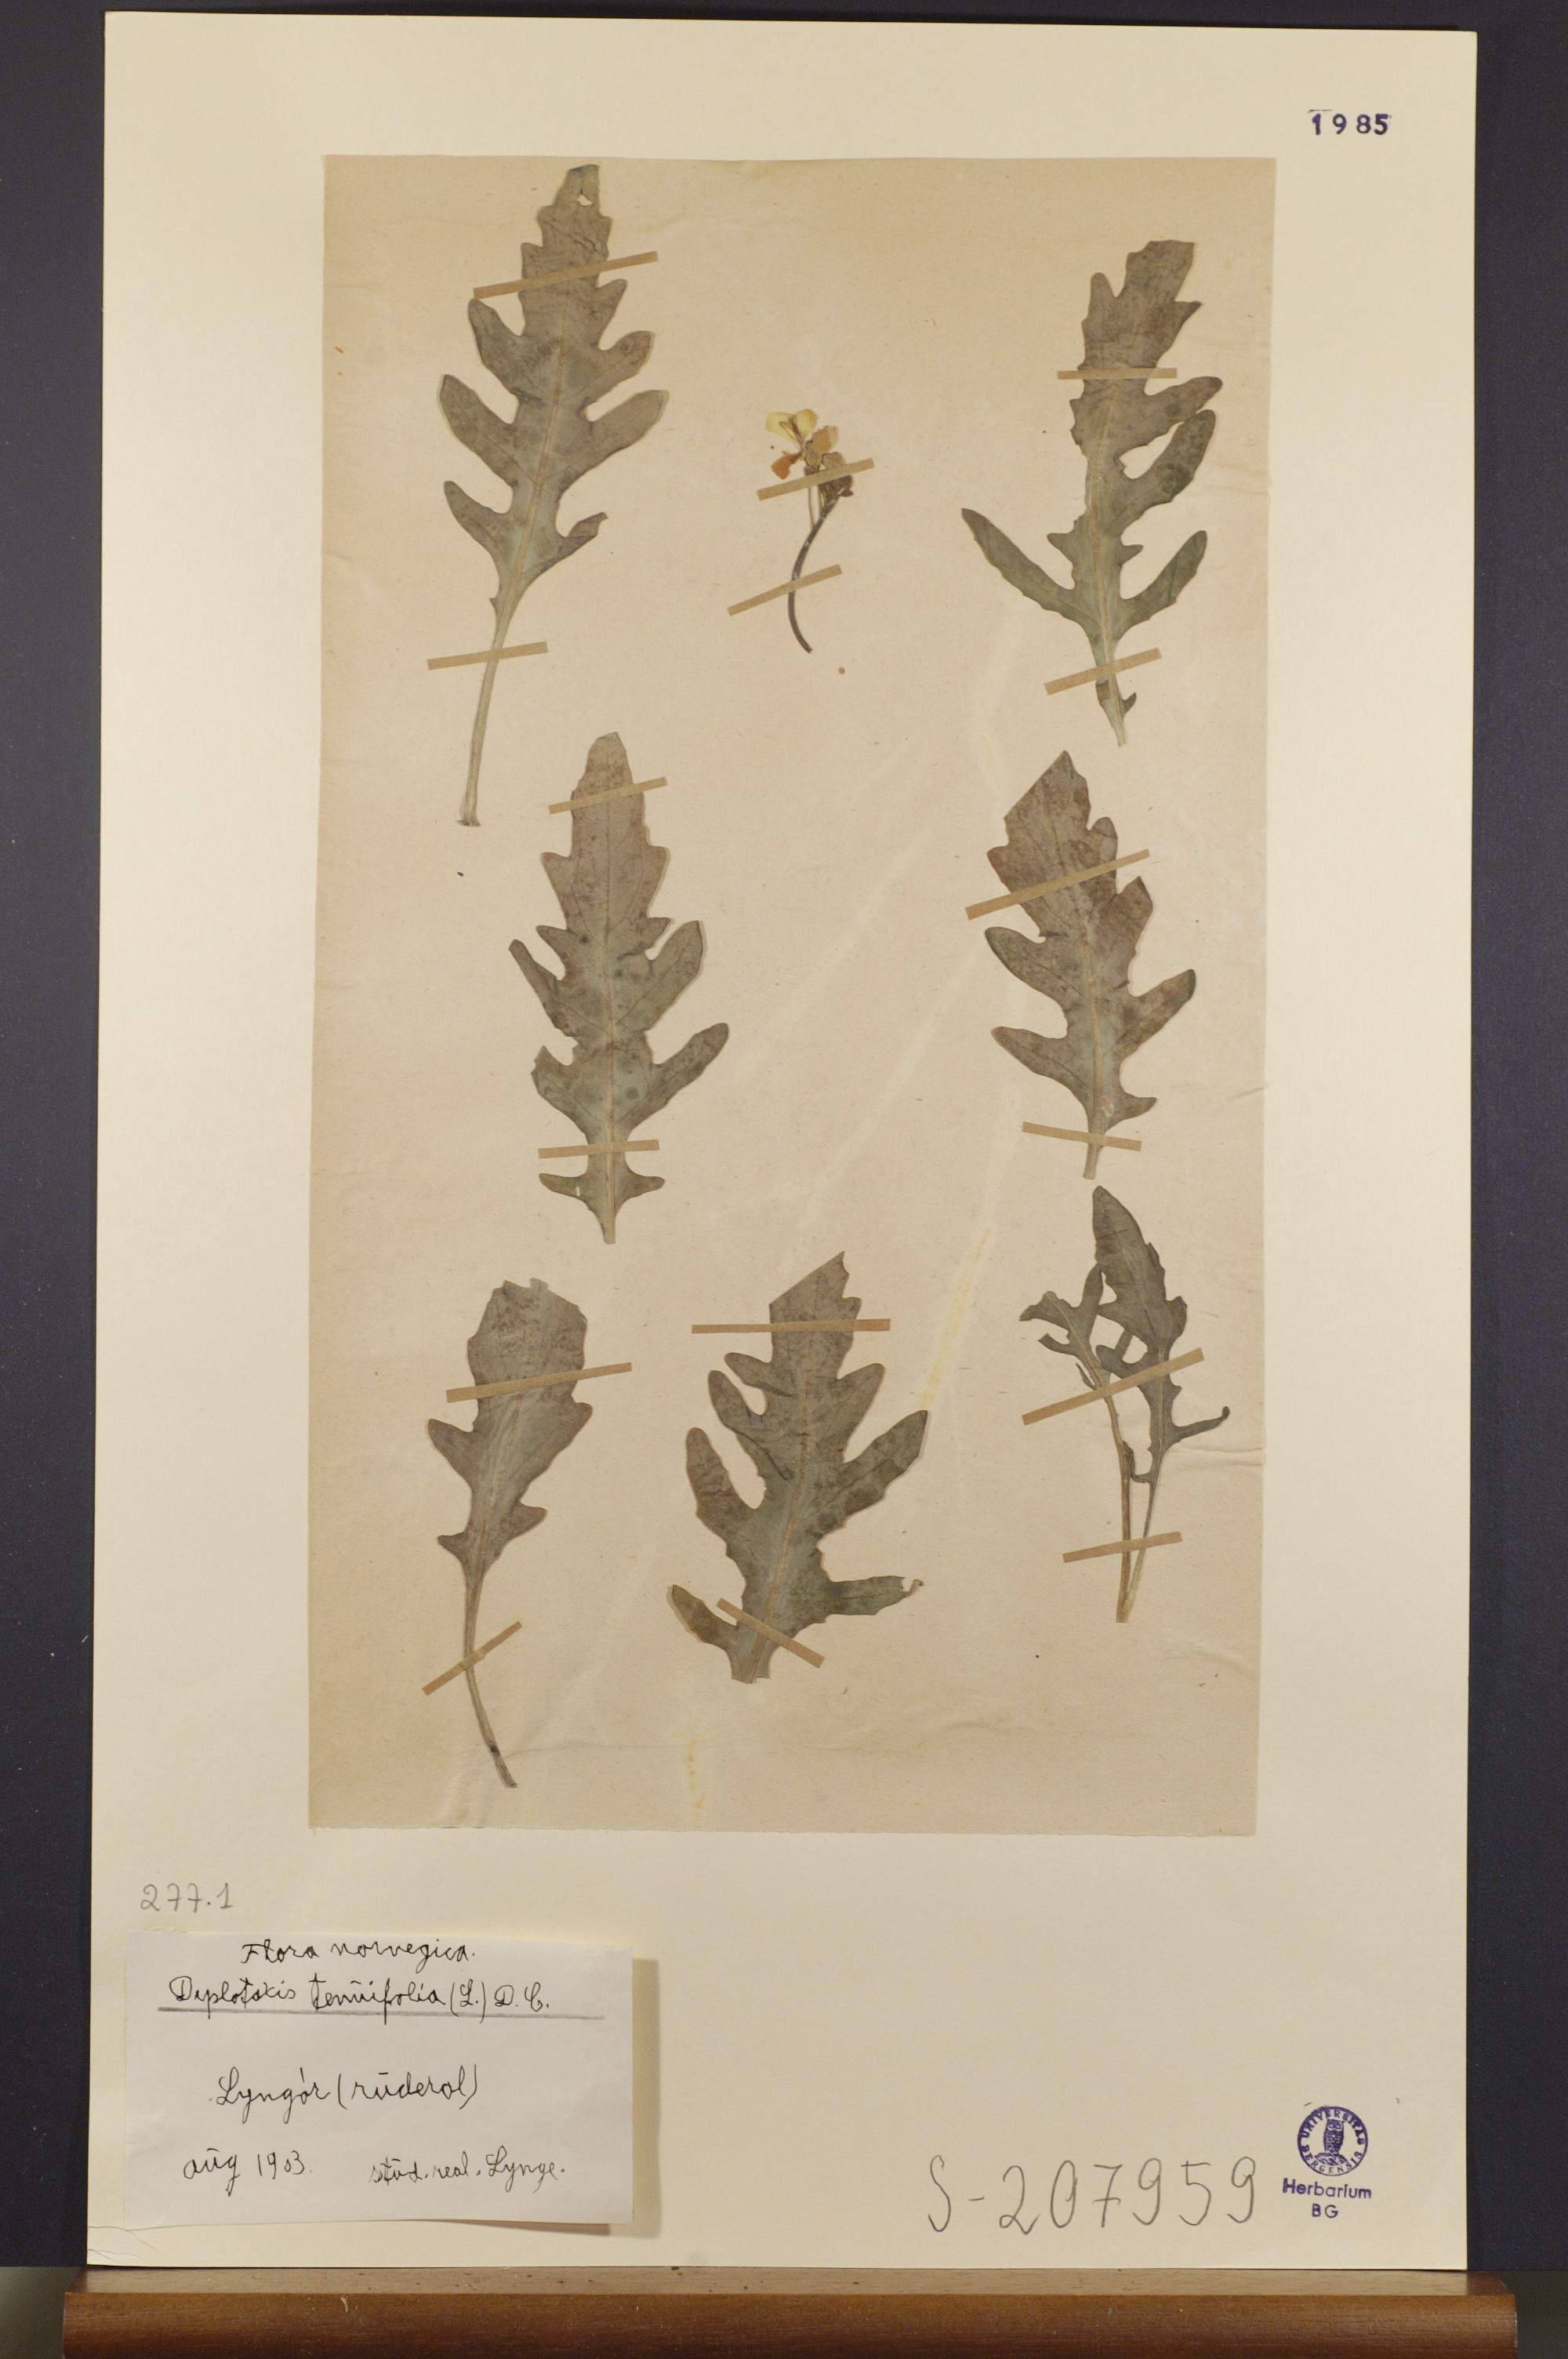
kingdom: Plantae
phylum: Tracheophyta
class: Magnoliopsida
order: Brassicales
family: Brassicaceae
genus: Diplotaxis
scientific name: Diplotaxis tenuifolia
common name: Perennial wall-rocket
